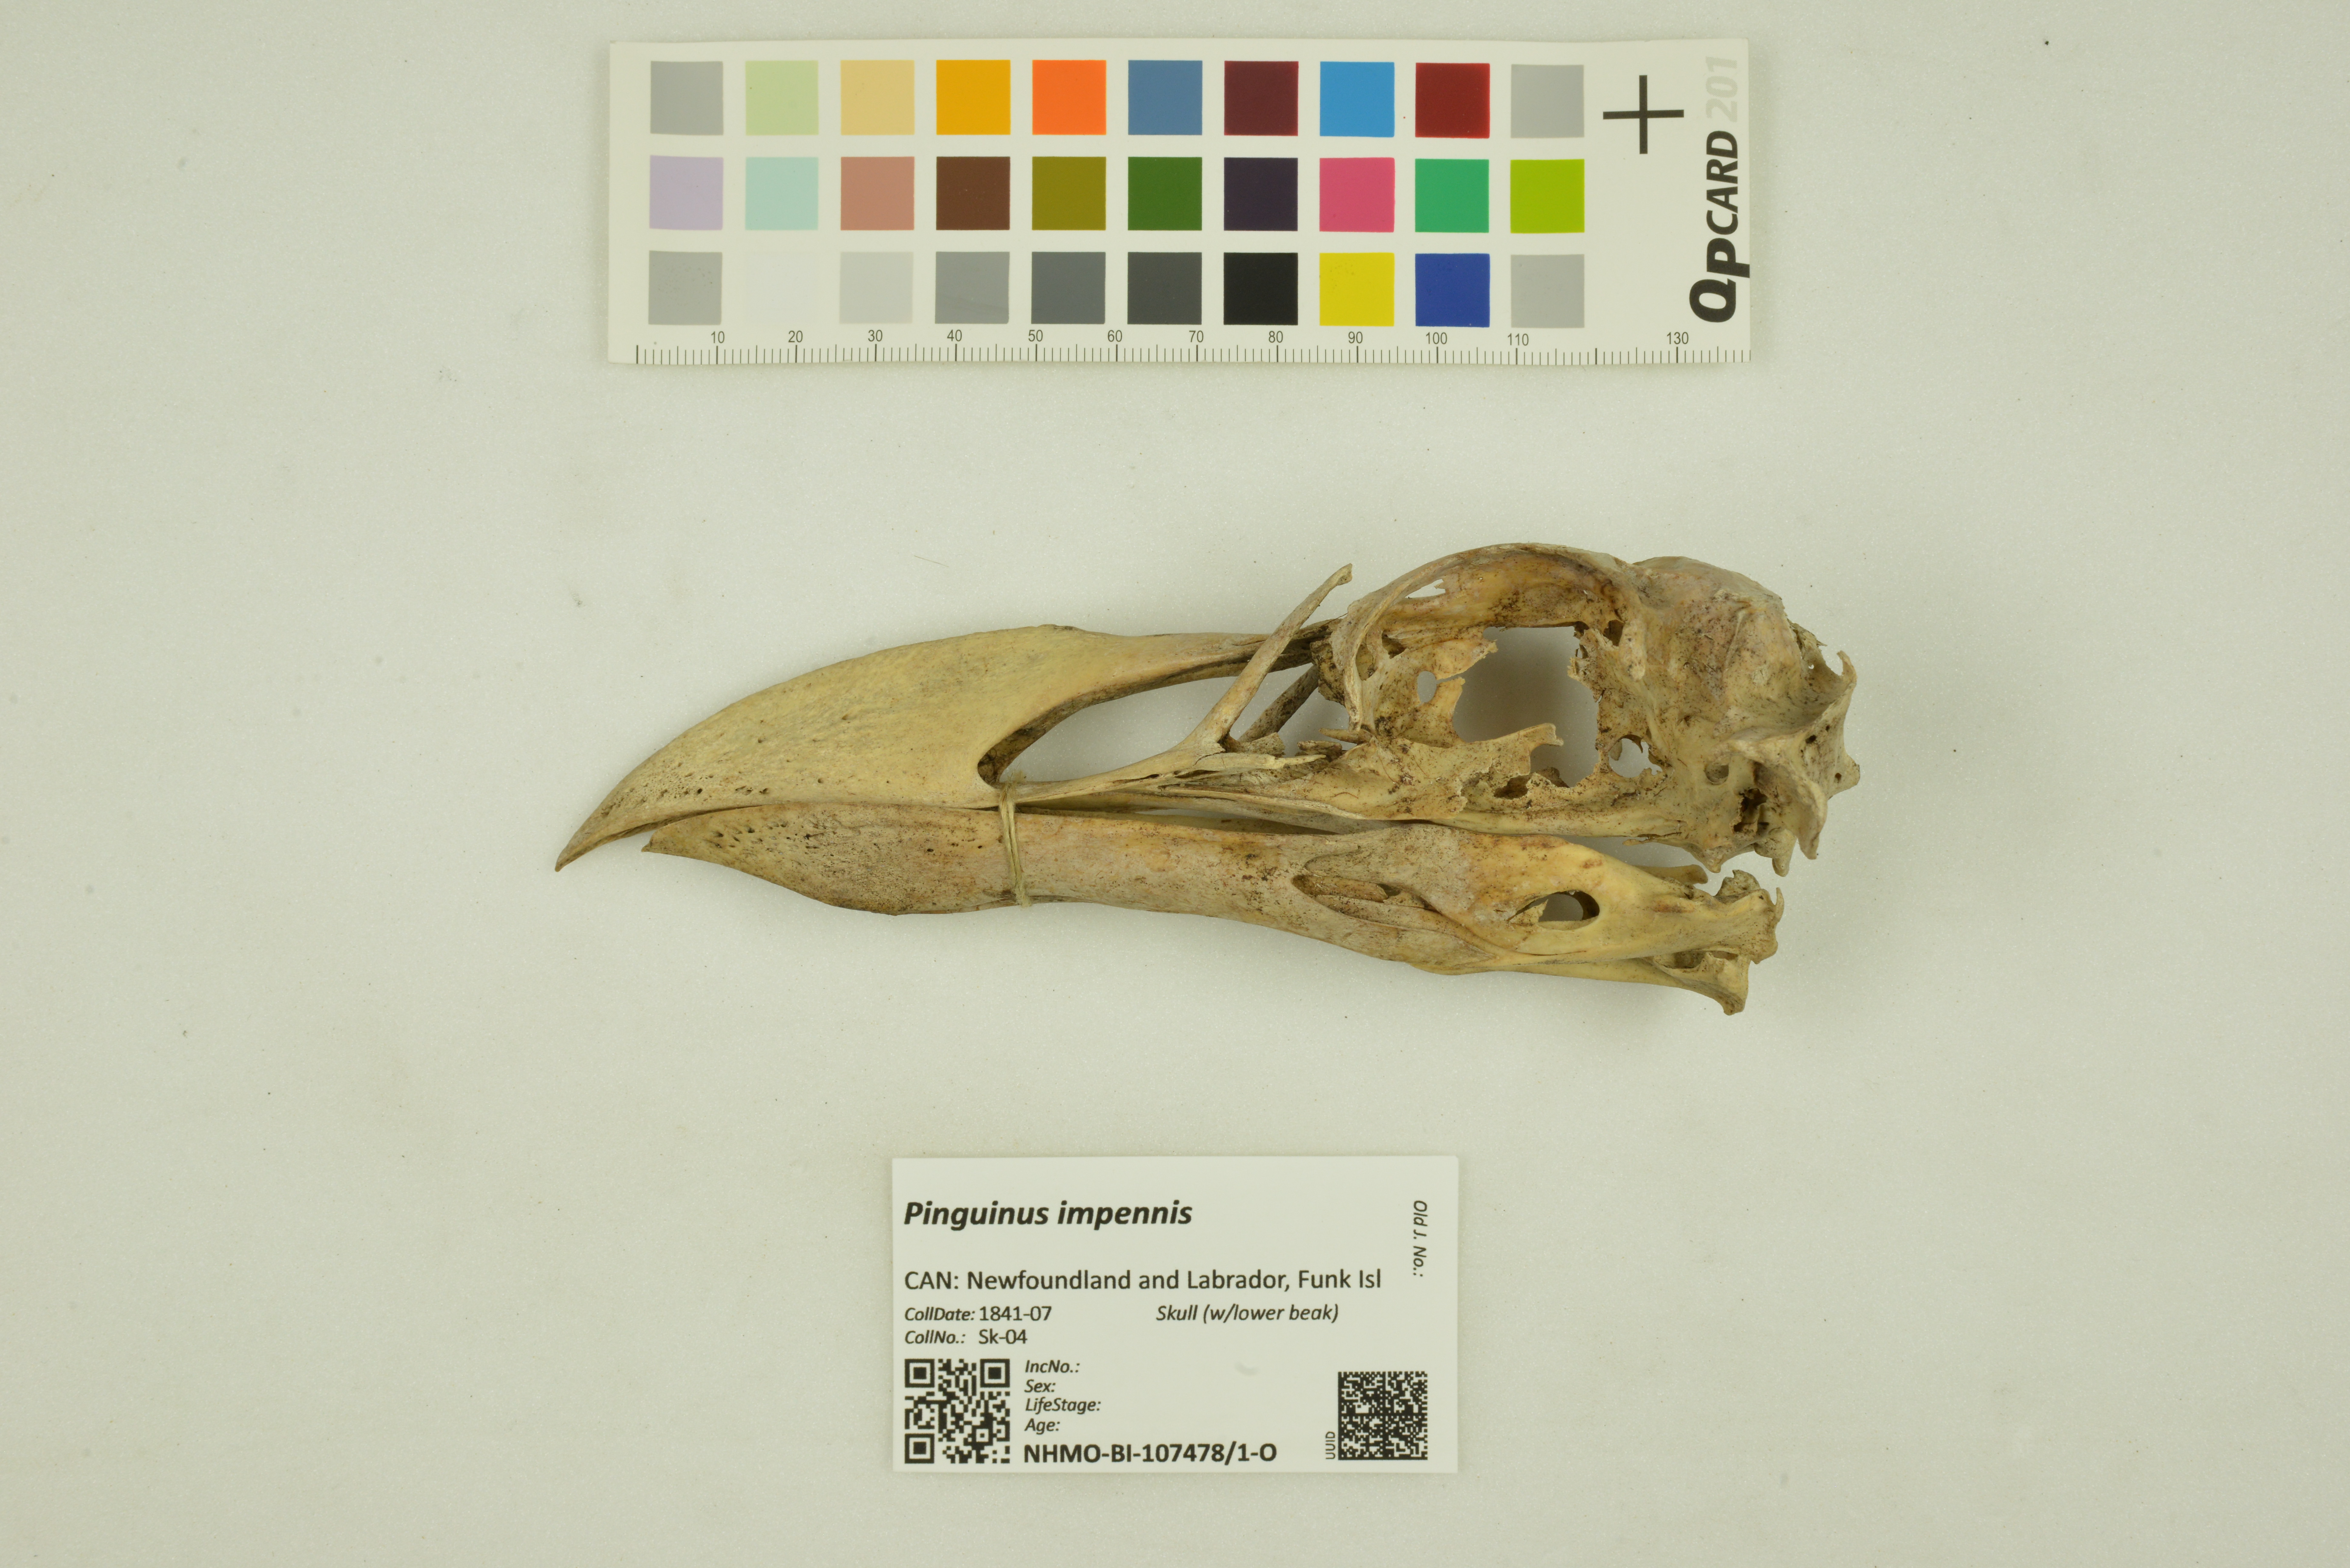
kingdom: Animalia
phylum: Chordata
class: Aves
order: Charadriiformes
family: Alcidae
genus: Pinguinus
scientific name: Pinguinus impennis
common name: Great auk
